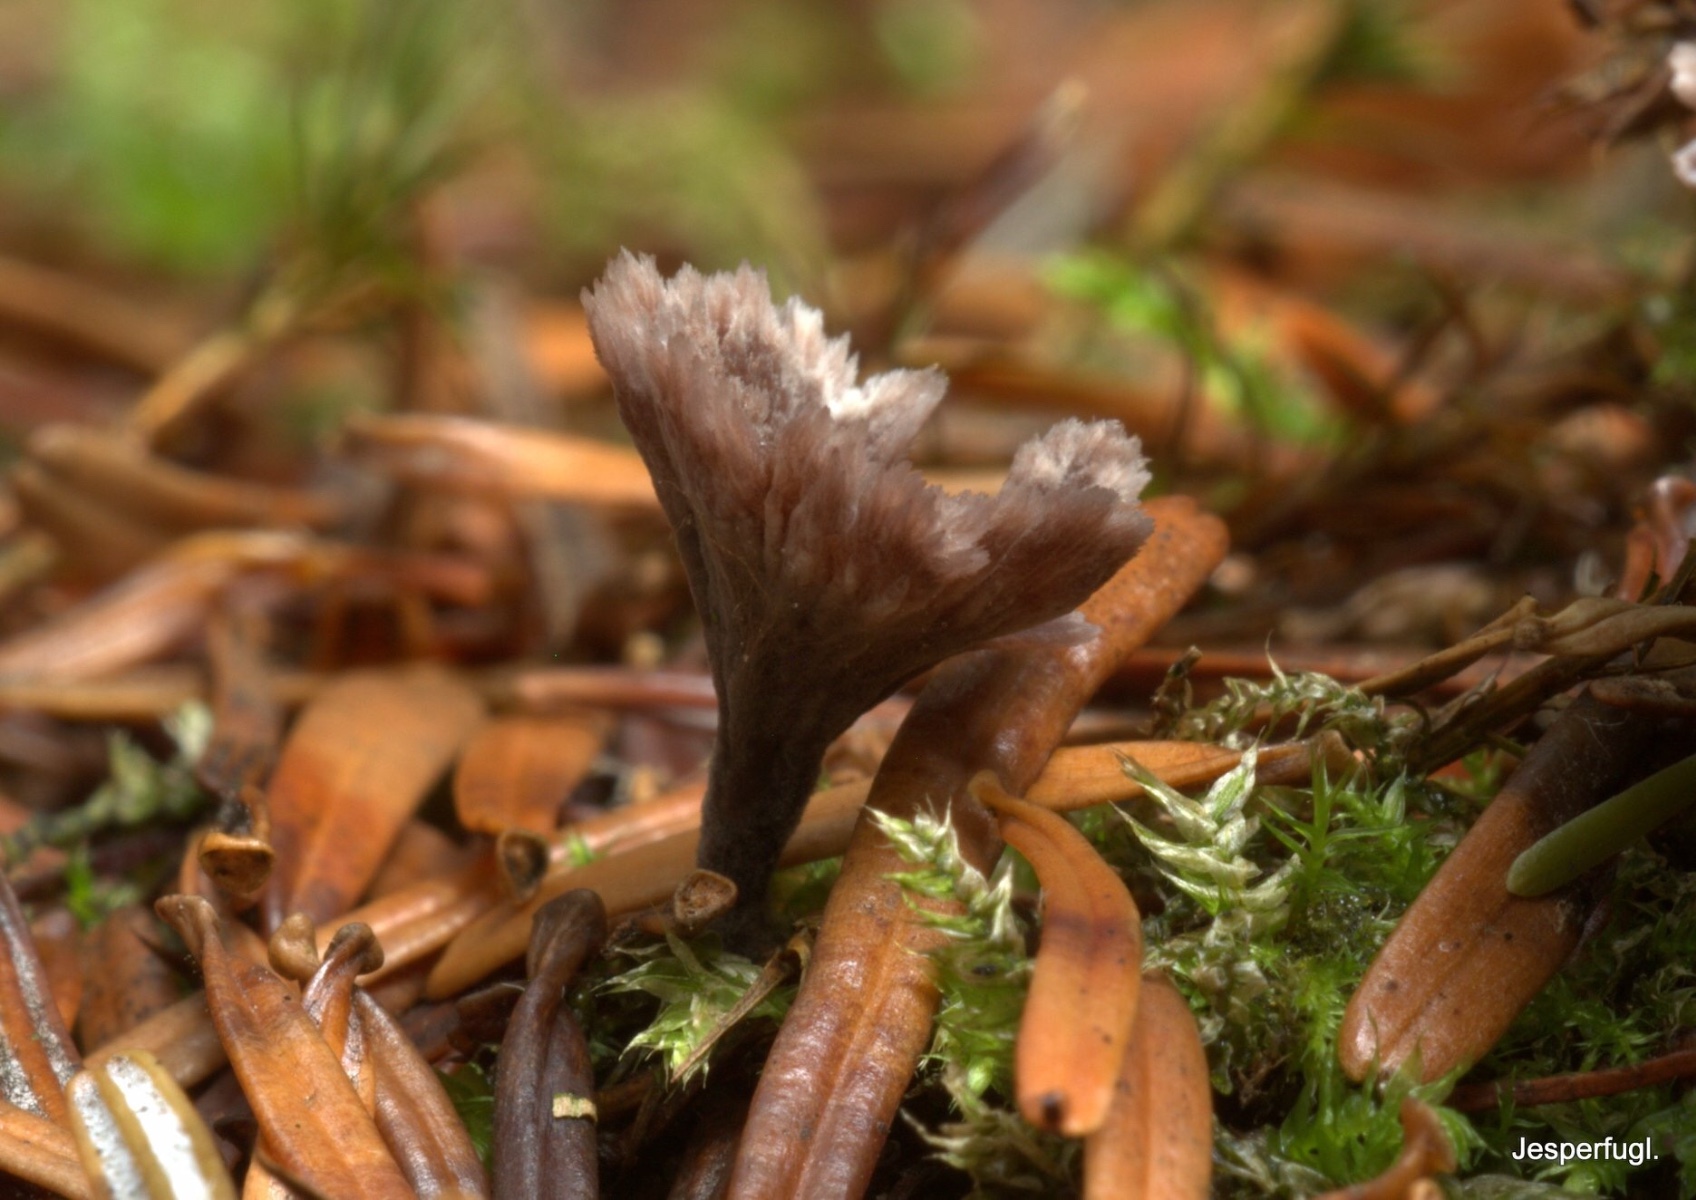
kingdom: Fungi
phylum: Basidiomycota
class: Agaricomycetes
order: Thelephorales
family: Thelephoraceae
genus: Thelephora
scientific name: Thelephora caryophyllea
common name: tragt-frynsesvamp
